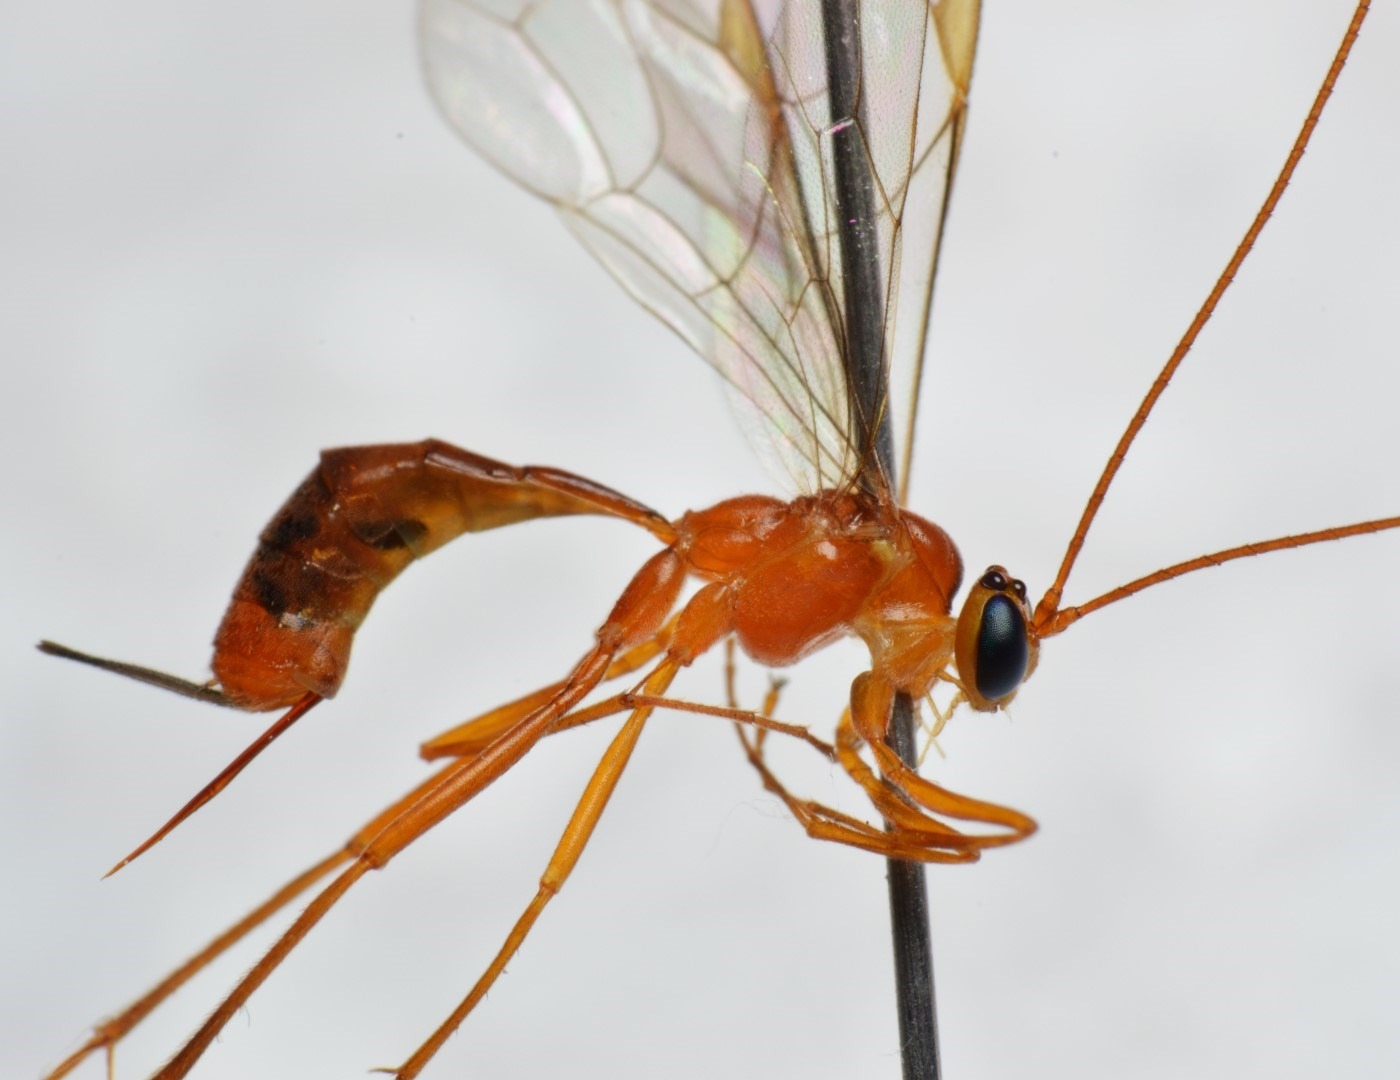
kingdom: Animalia
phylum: Arthropoda
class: Insecta
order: Hymenoptera
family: Ichneumonidae
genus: Netelia
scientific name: Netelia tarsata
